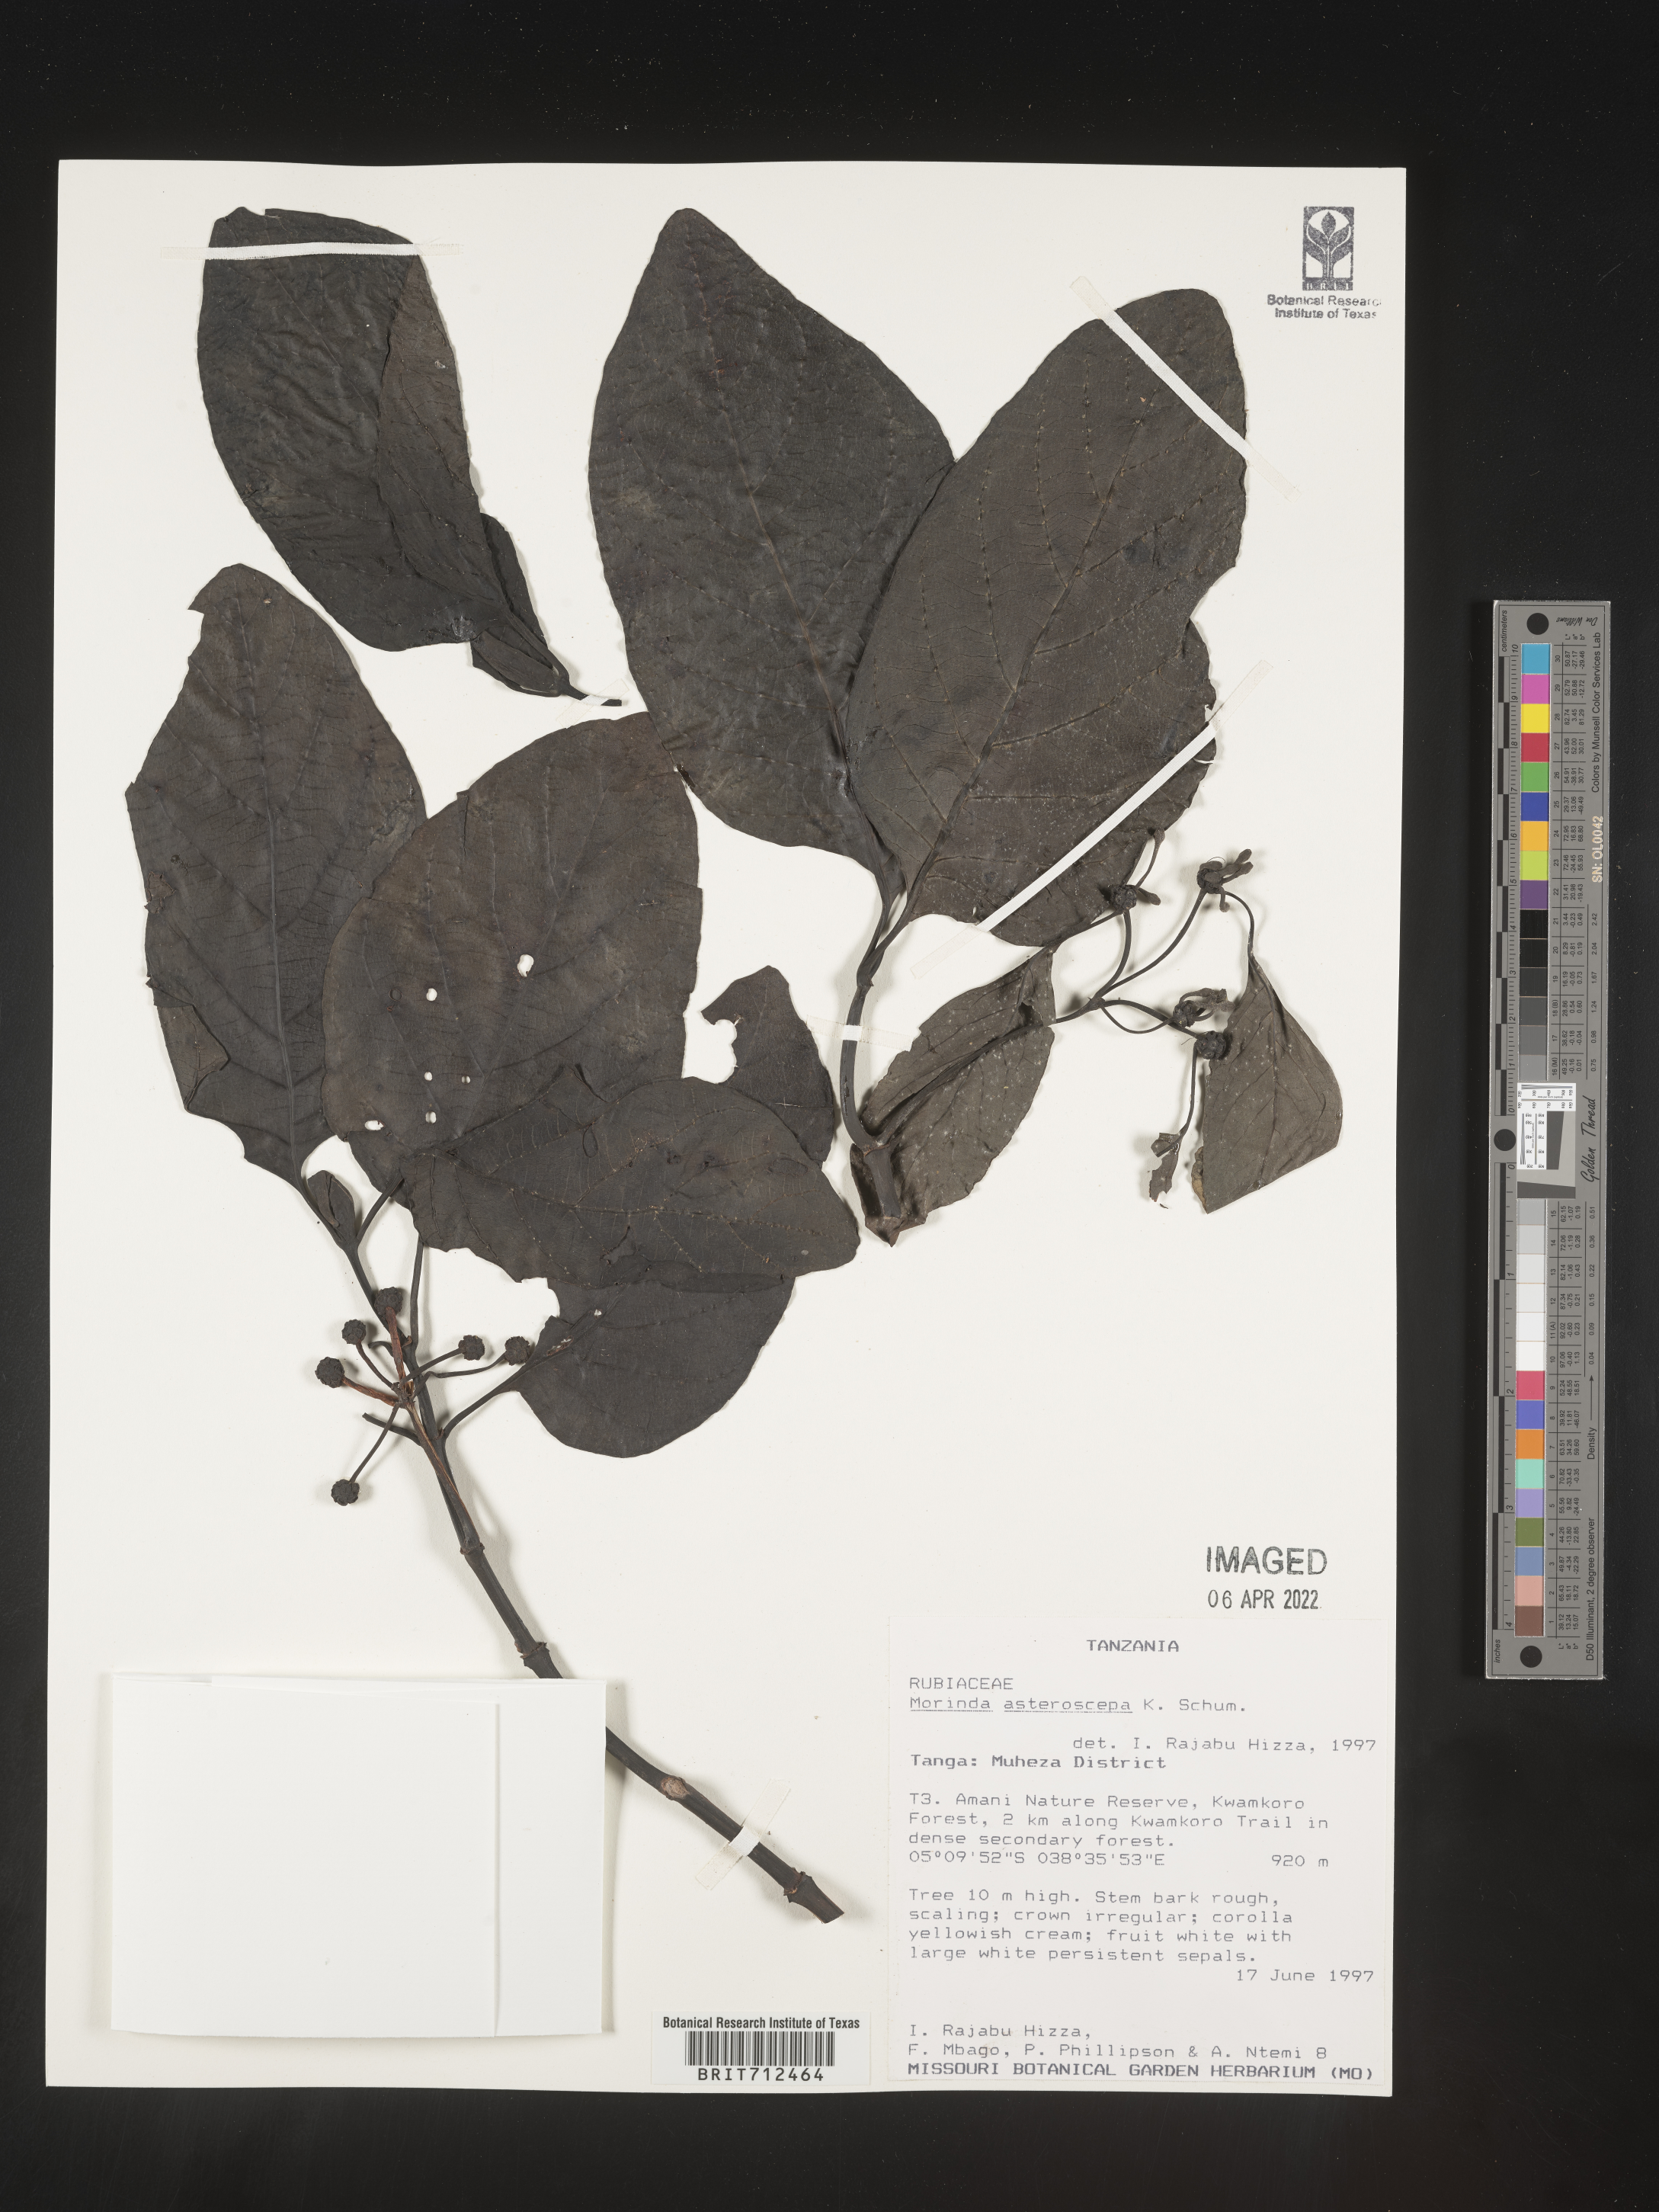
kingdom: Plantae
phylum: Tracheophyta
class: Magnoliopsida
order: Gentianales
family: Rubiaceae
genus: Morinda
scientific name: Morinda
